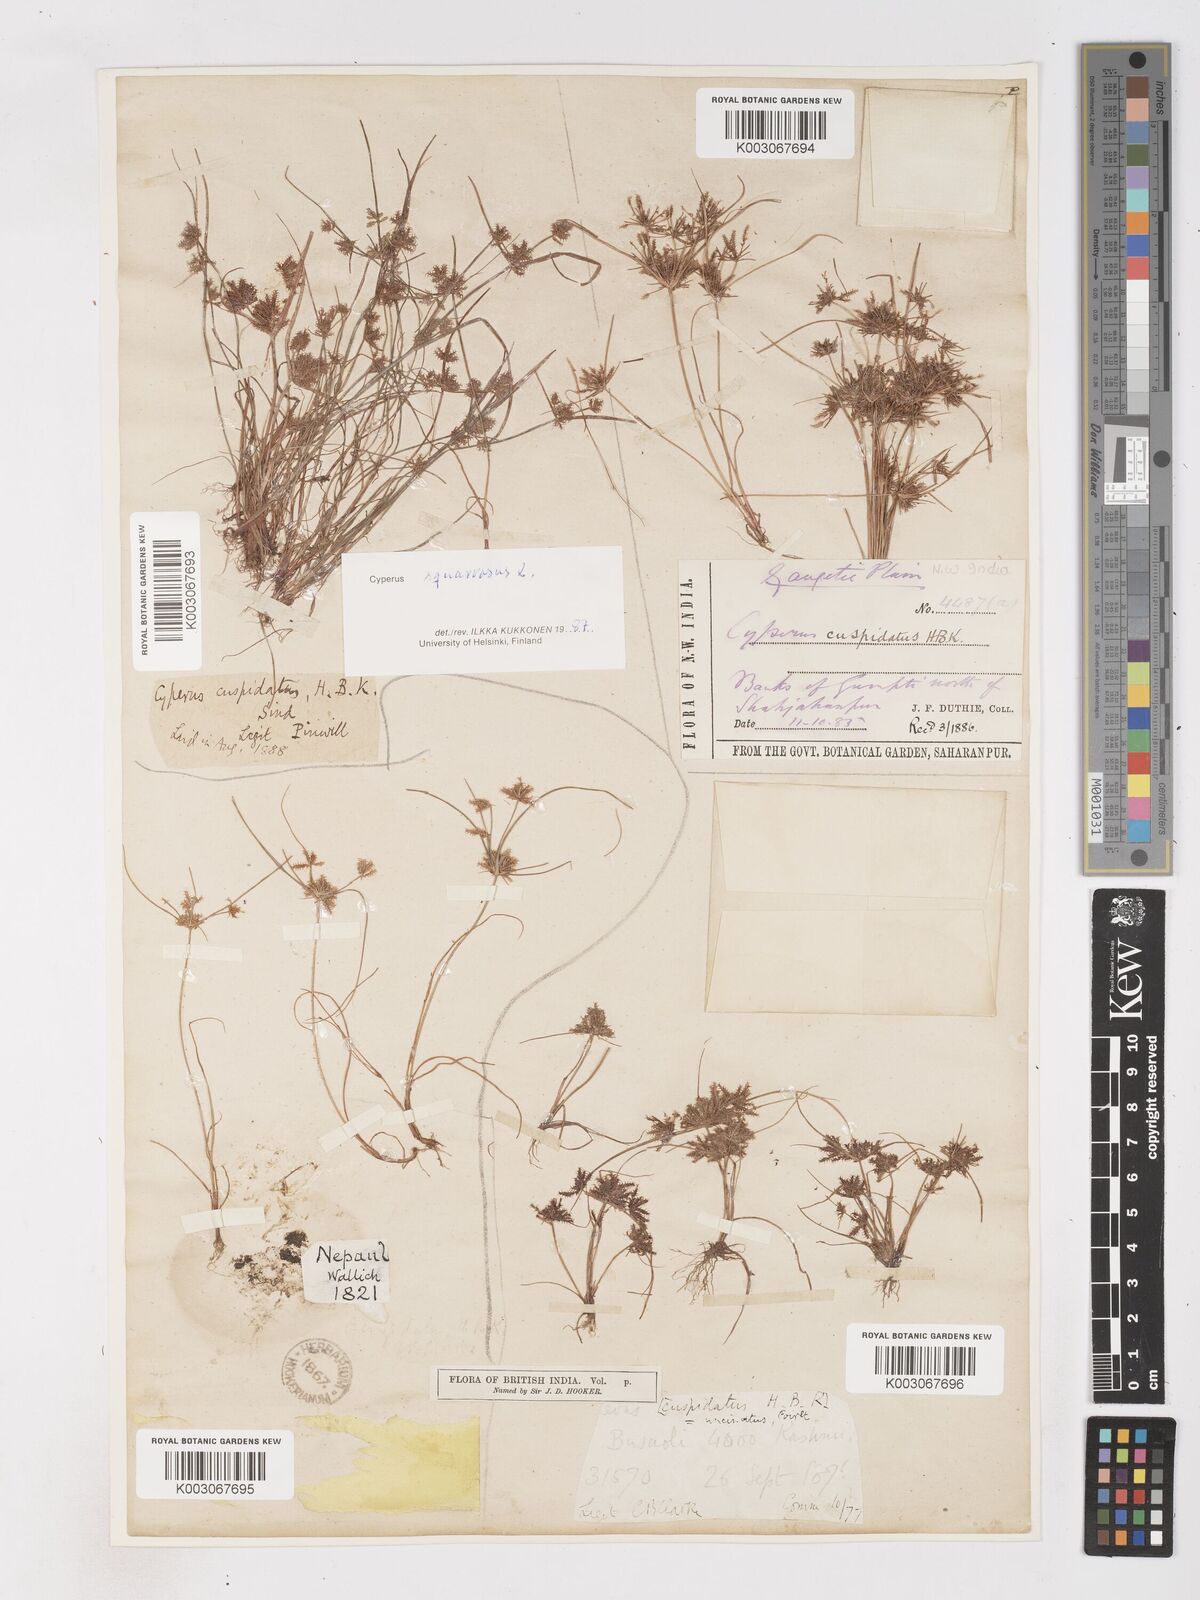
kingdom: Plantae
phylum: Tracheophyta
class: Liliopsida
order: Poales
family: Cyperaceae
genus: Cyperus
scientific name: Cyperus squarrosus
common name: Awned cyperus
